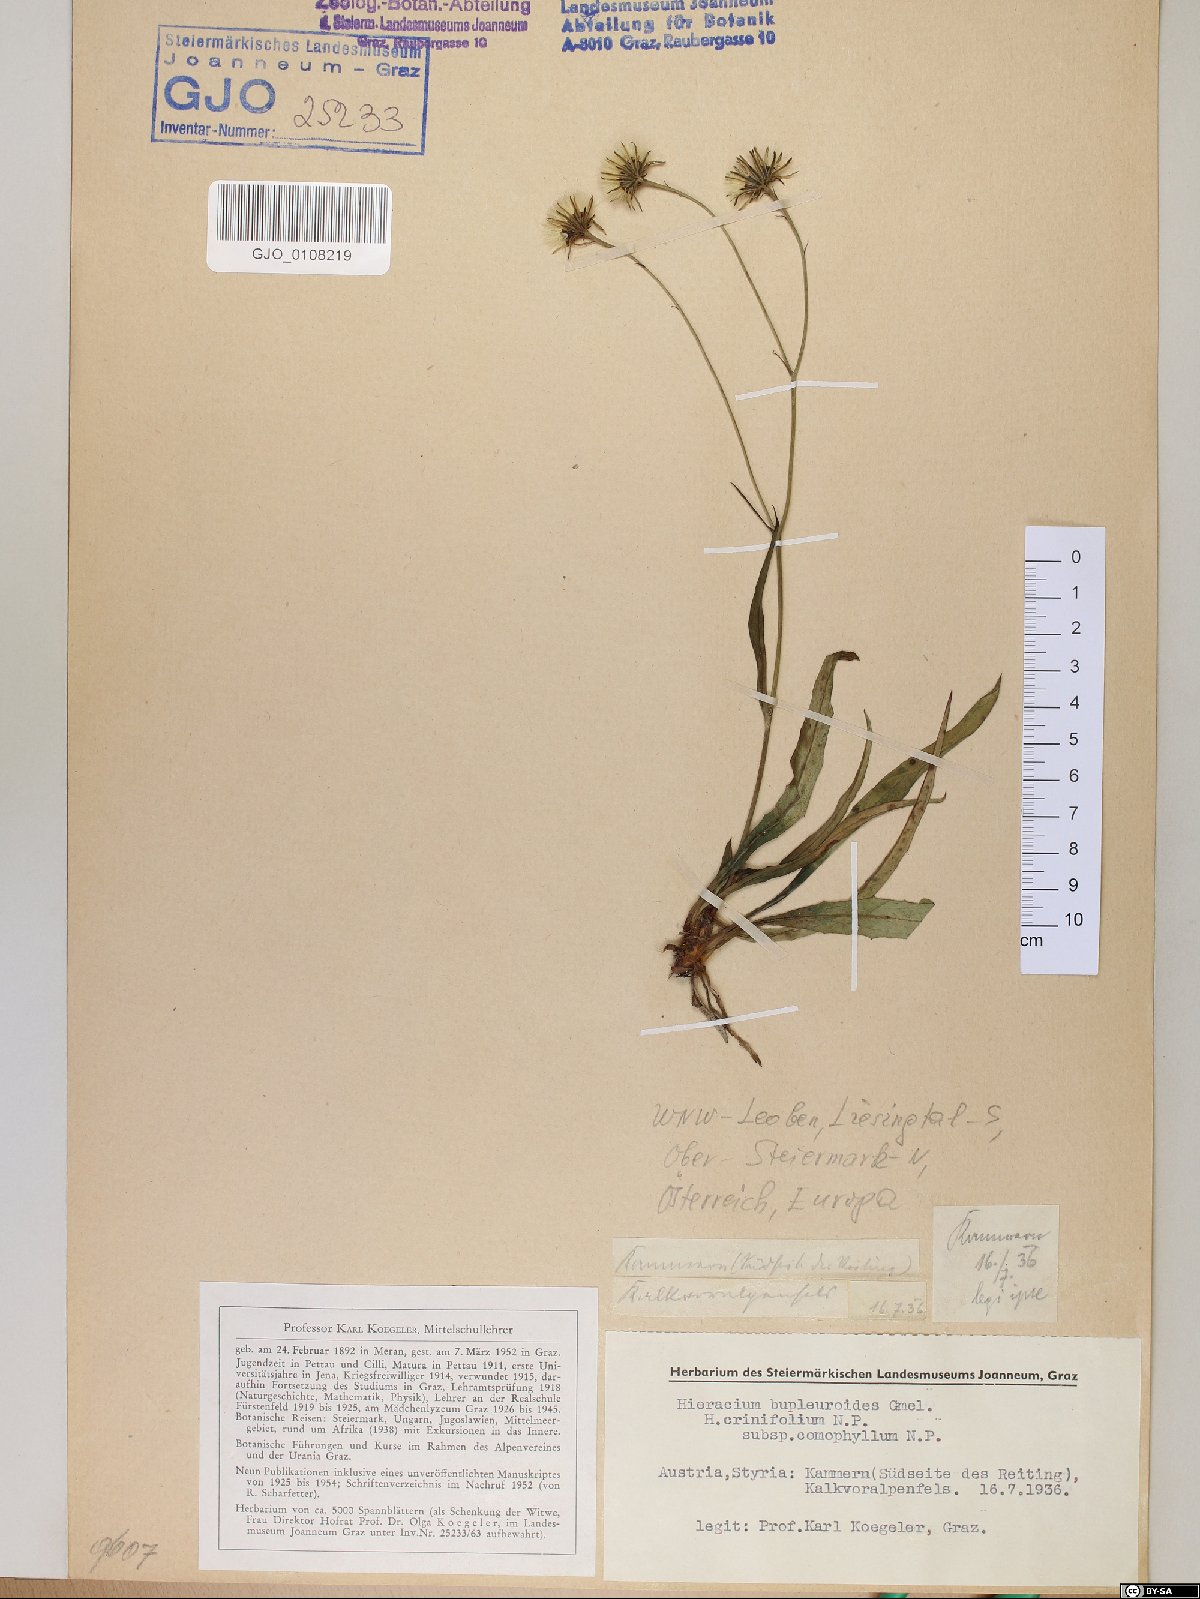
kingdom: Plantae
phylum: Tracheophyta
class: Magnoliopsida
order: Asterales
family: Asteraceae
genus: Hieracium
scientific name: Hieracium bupleuroides
